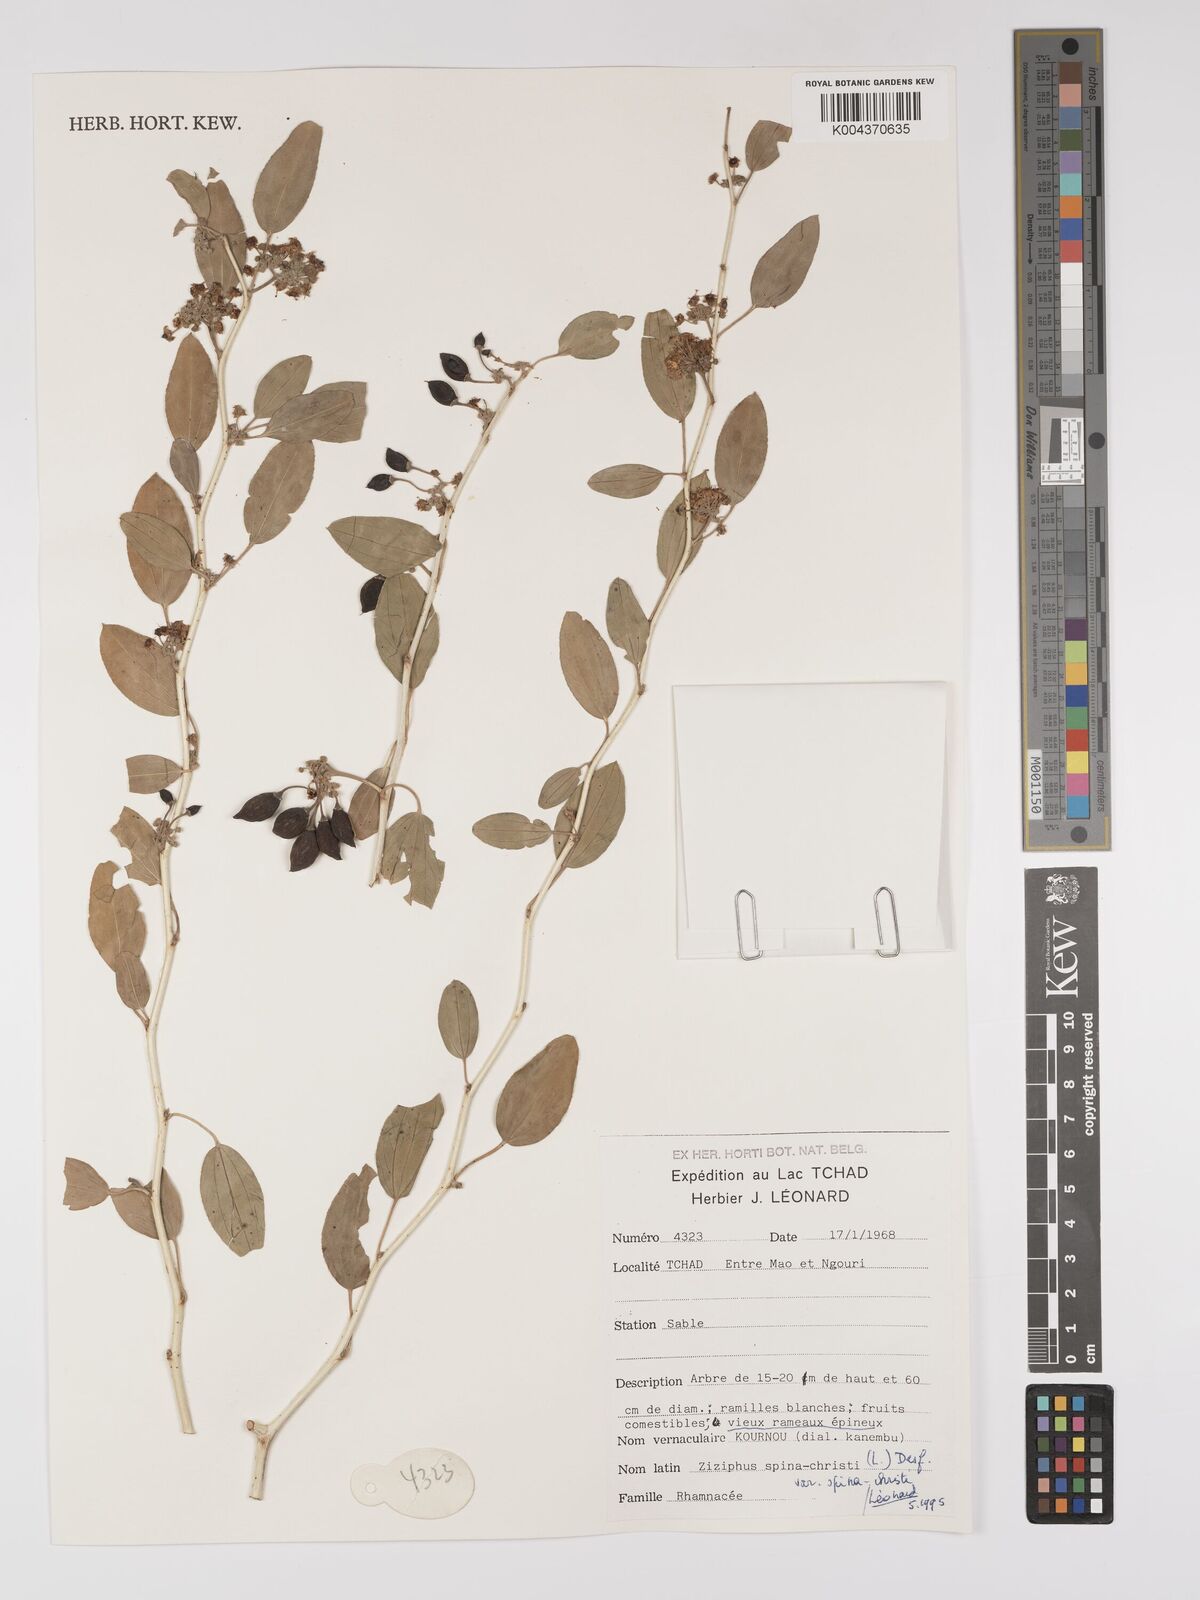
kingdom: Plantae
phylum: Tracheophyta
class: Magnoliopsida
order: Rosales
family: Rhamnaceae
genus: Ziziphus
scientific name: Ziziphus spina-christi
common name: Syrian christ-thorn
